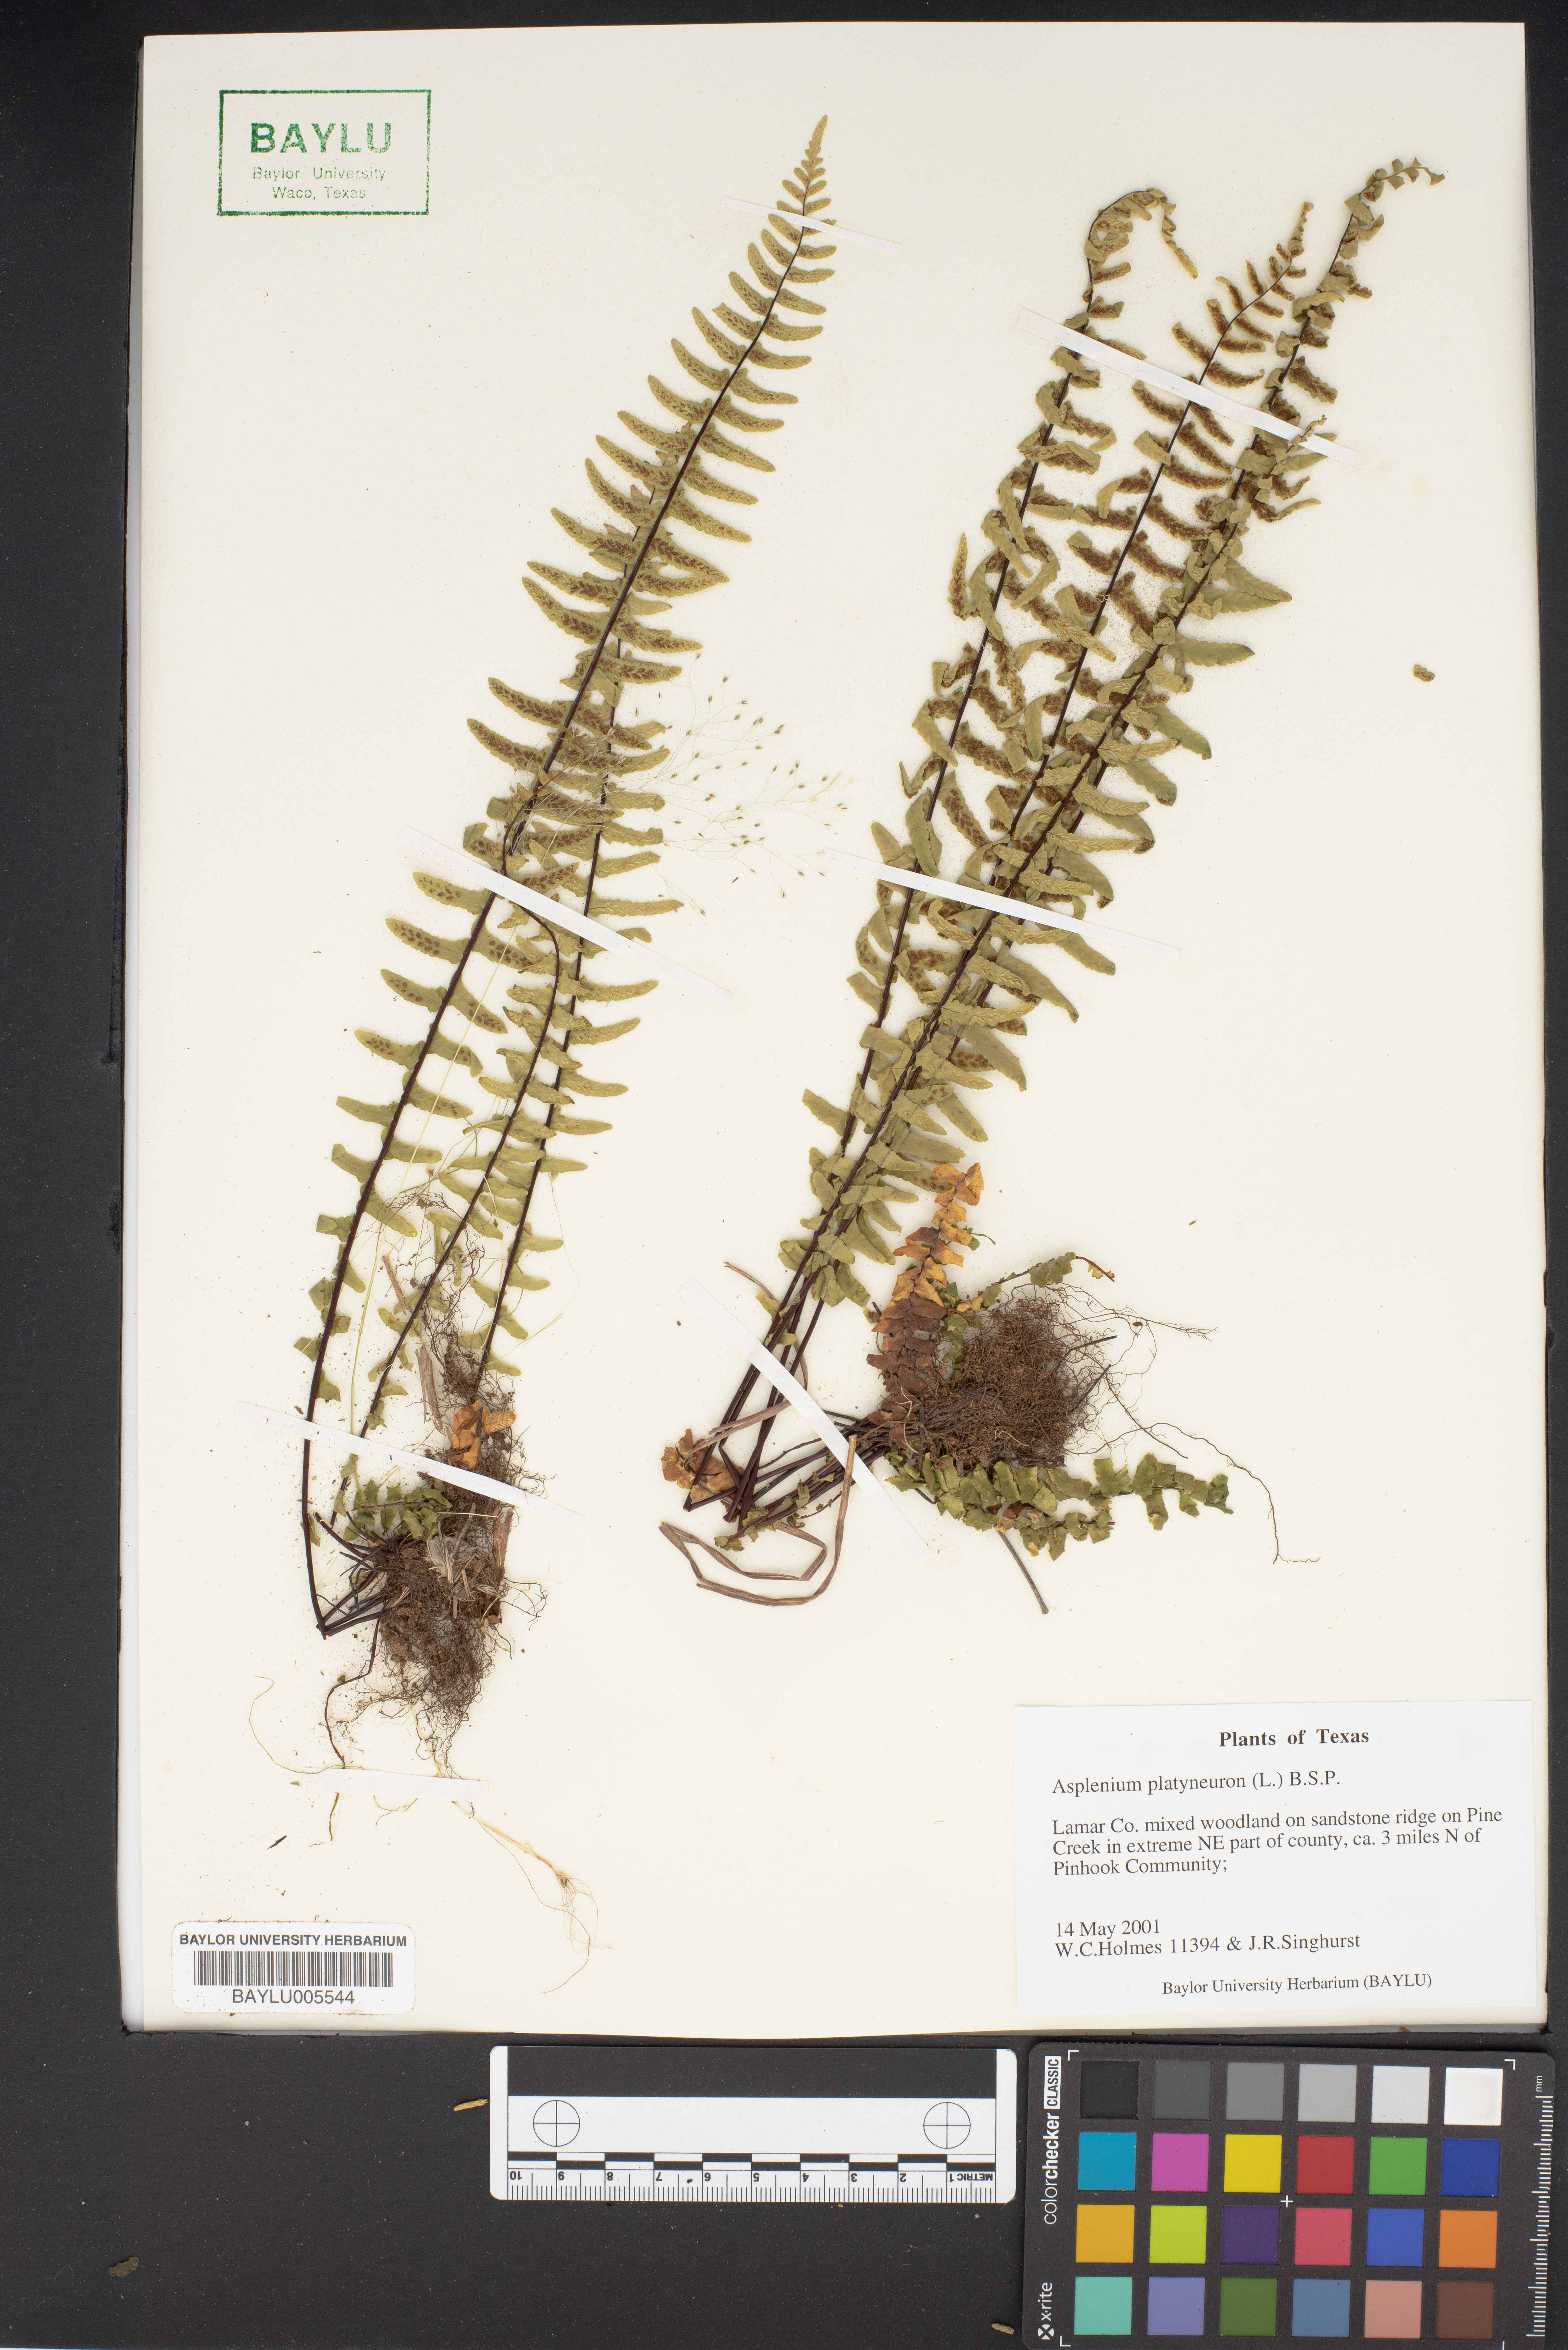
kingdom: Plantae
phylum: Tracheophyta
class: Polypodiopsida
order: Polypodiales
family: Aspleniaceae
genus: Asplenium
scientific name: Asplenium platyneuron
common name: Ebony spleenwort
